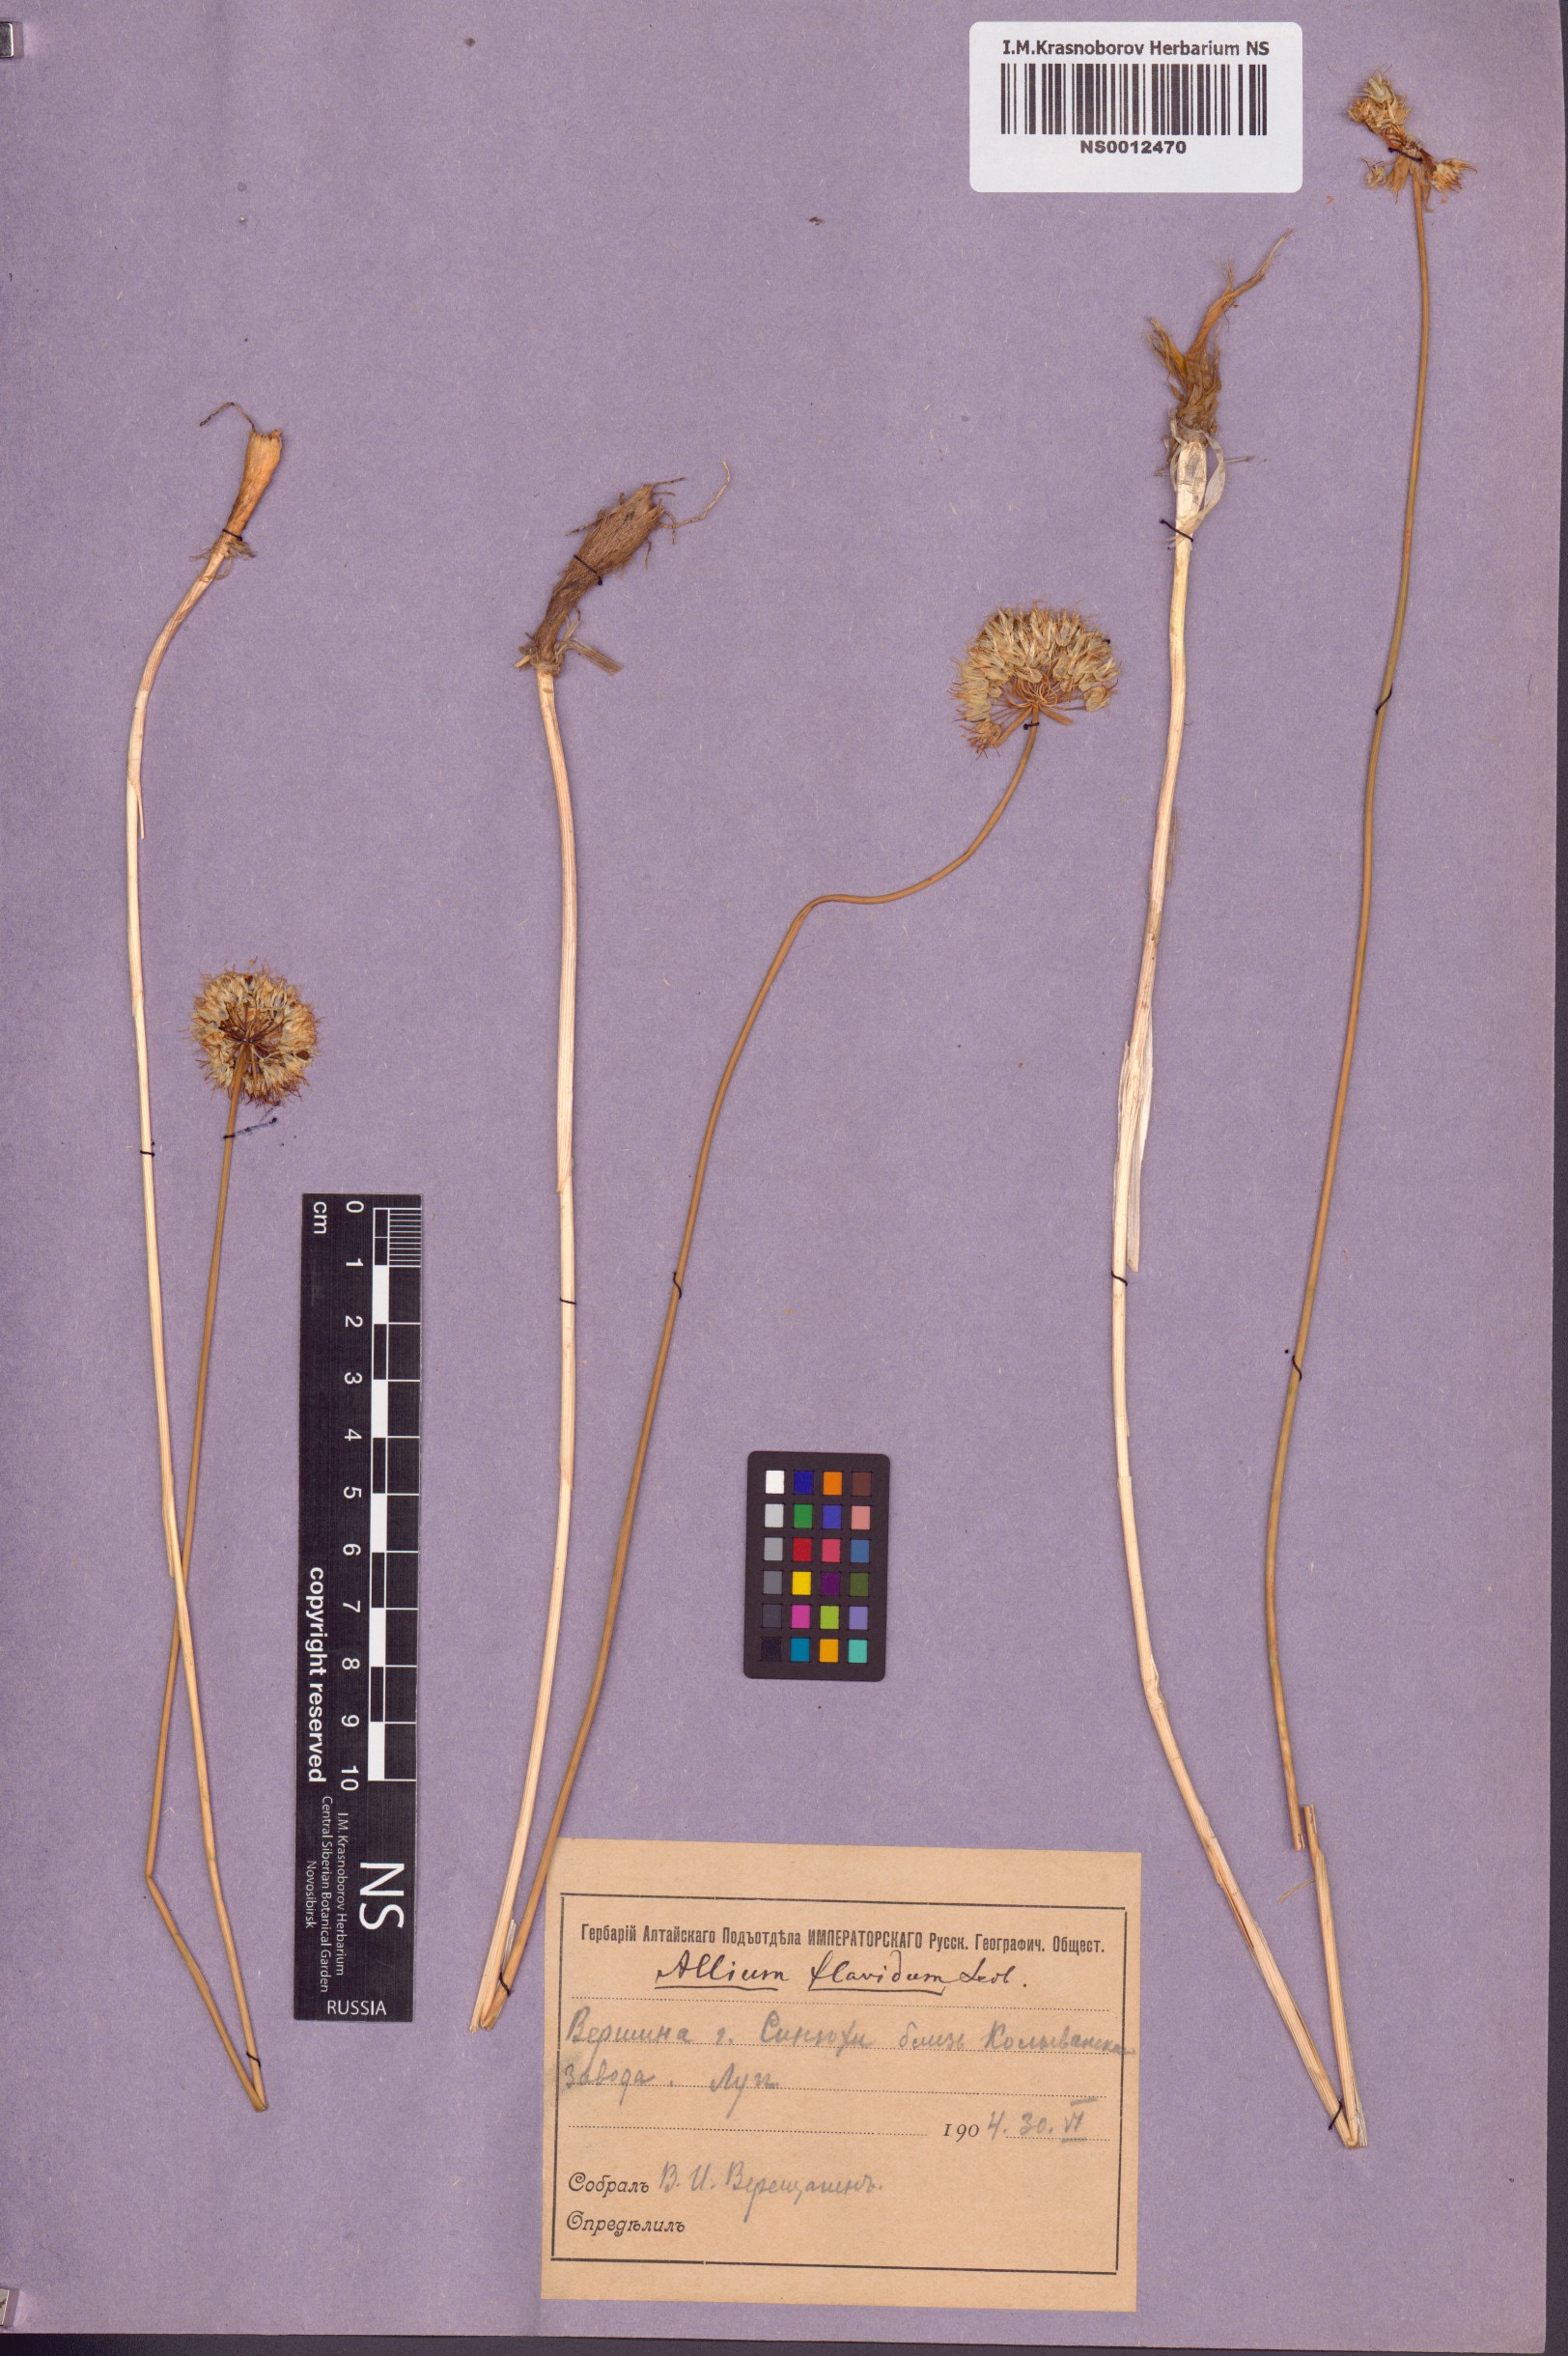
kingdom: Plantae
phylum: Tracheophyta
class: Liliopsida
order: Asparagales
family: Amaryllidaceae
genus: Allium
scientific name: Allium flavidum
